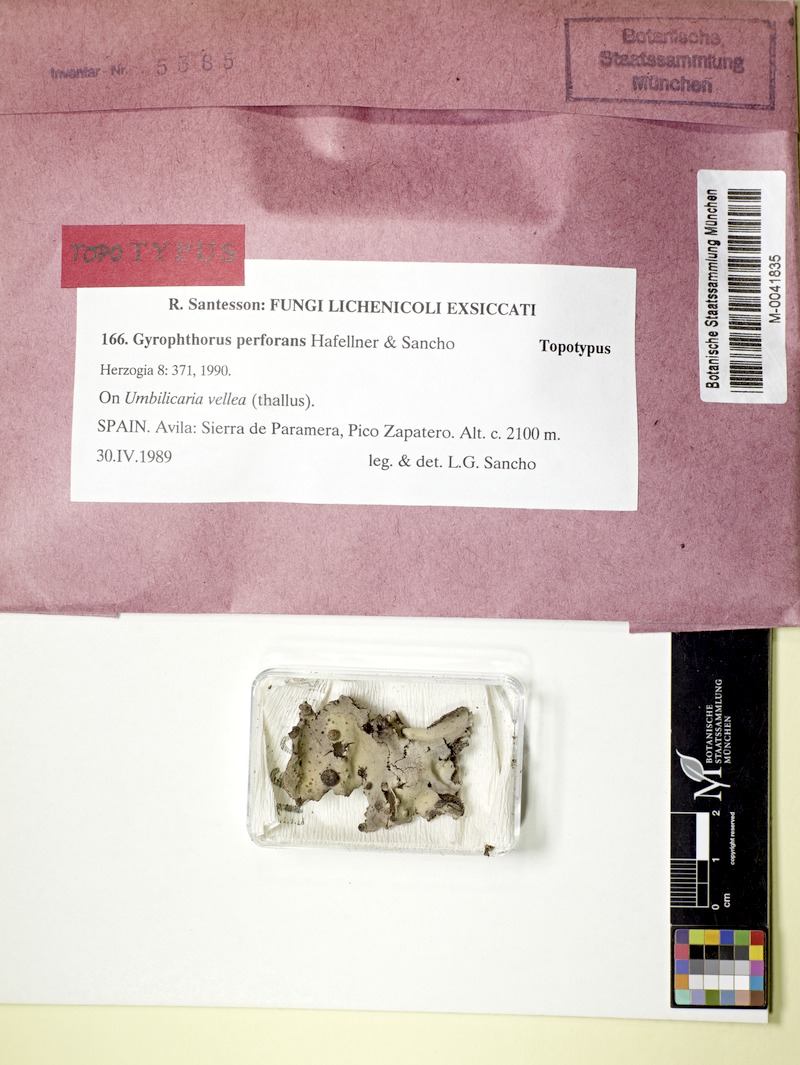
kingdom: Fungi
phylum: Ascomycota
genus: Gyrophthorus
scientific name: Gyrophthorus perforans
